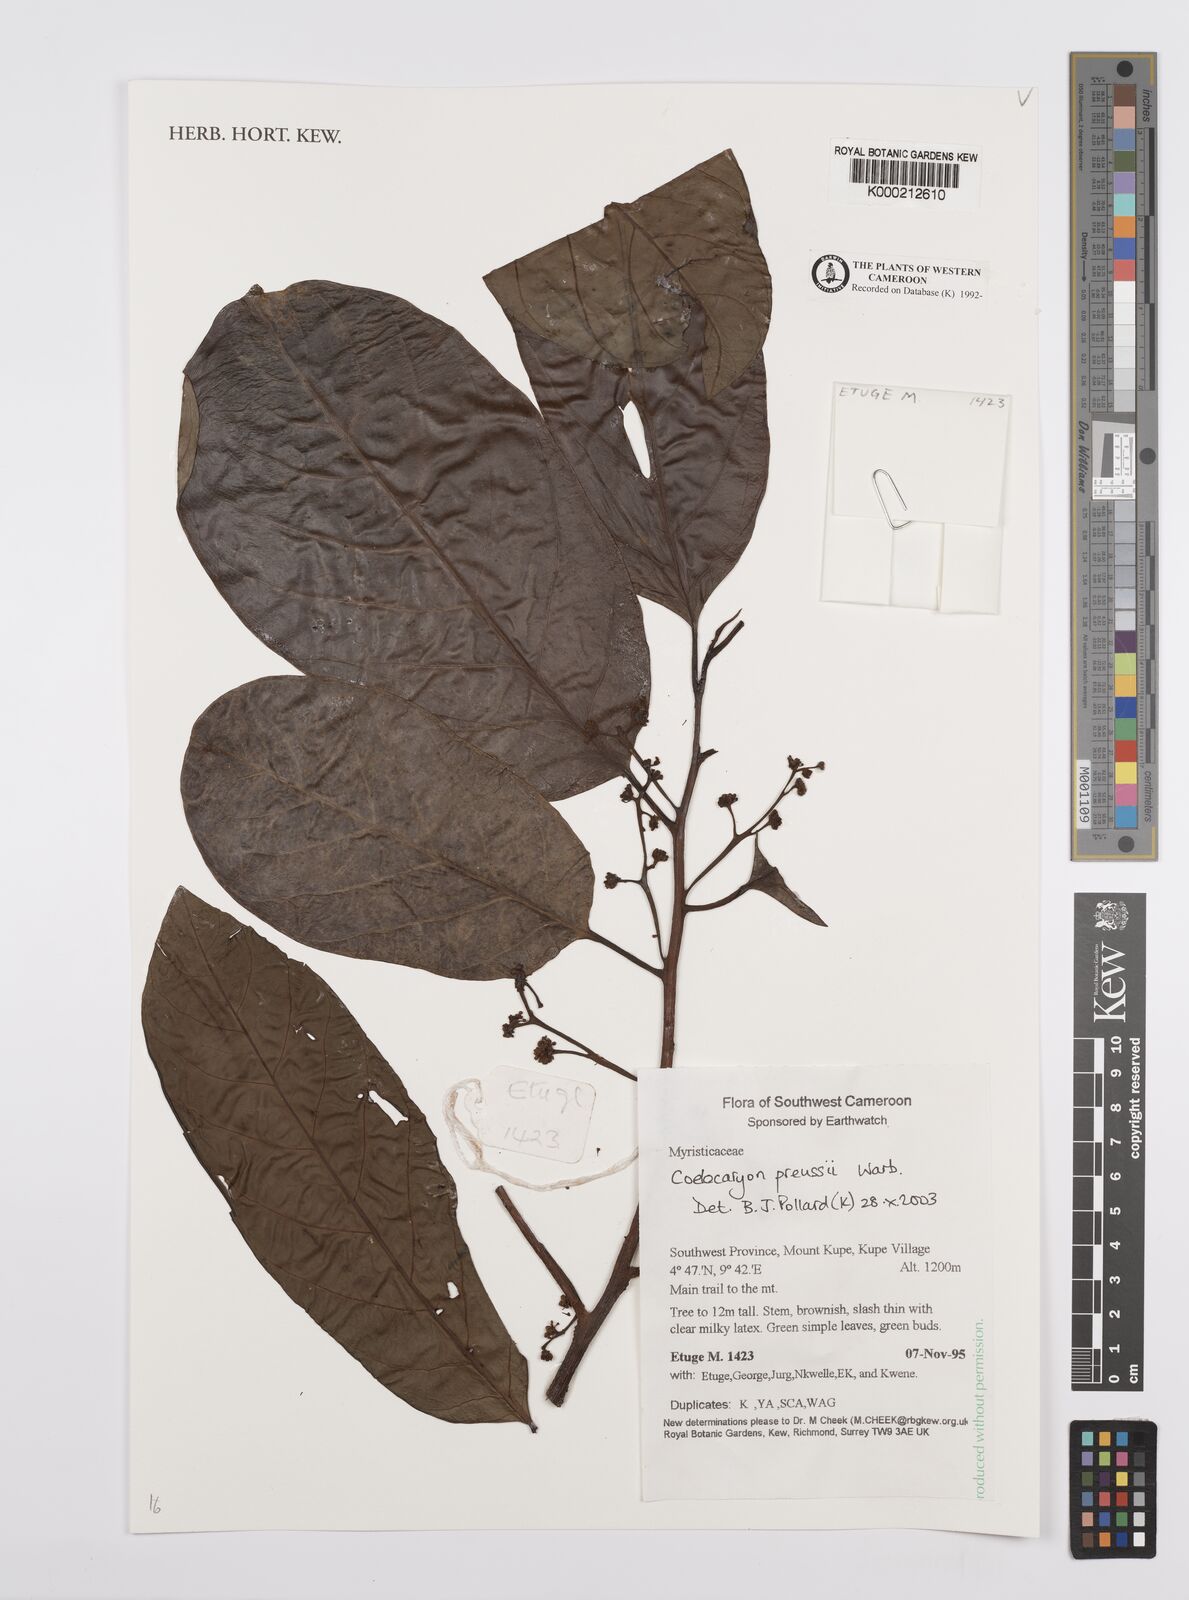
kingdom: Plantae
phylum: Tracheophyta
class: Magnoliopsida
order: Magnoliales
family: Myristicaceae
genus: Coelocaryon
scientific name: Coelocaryon preussii
